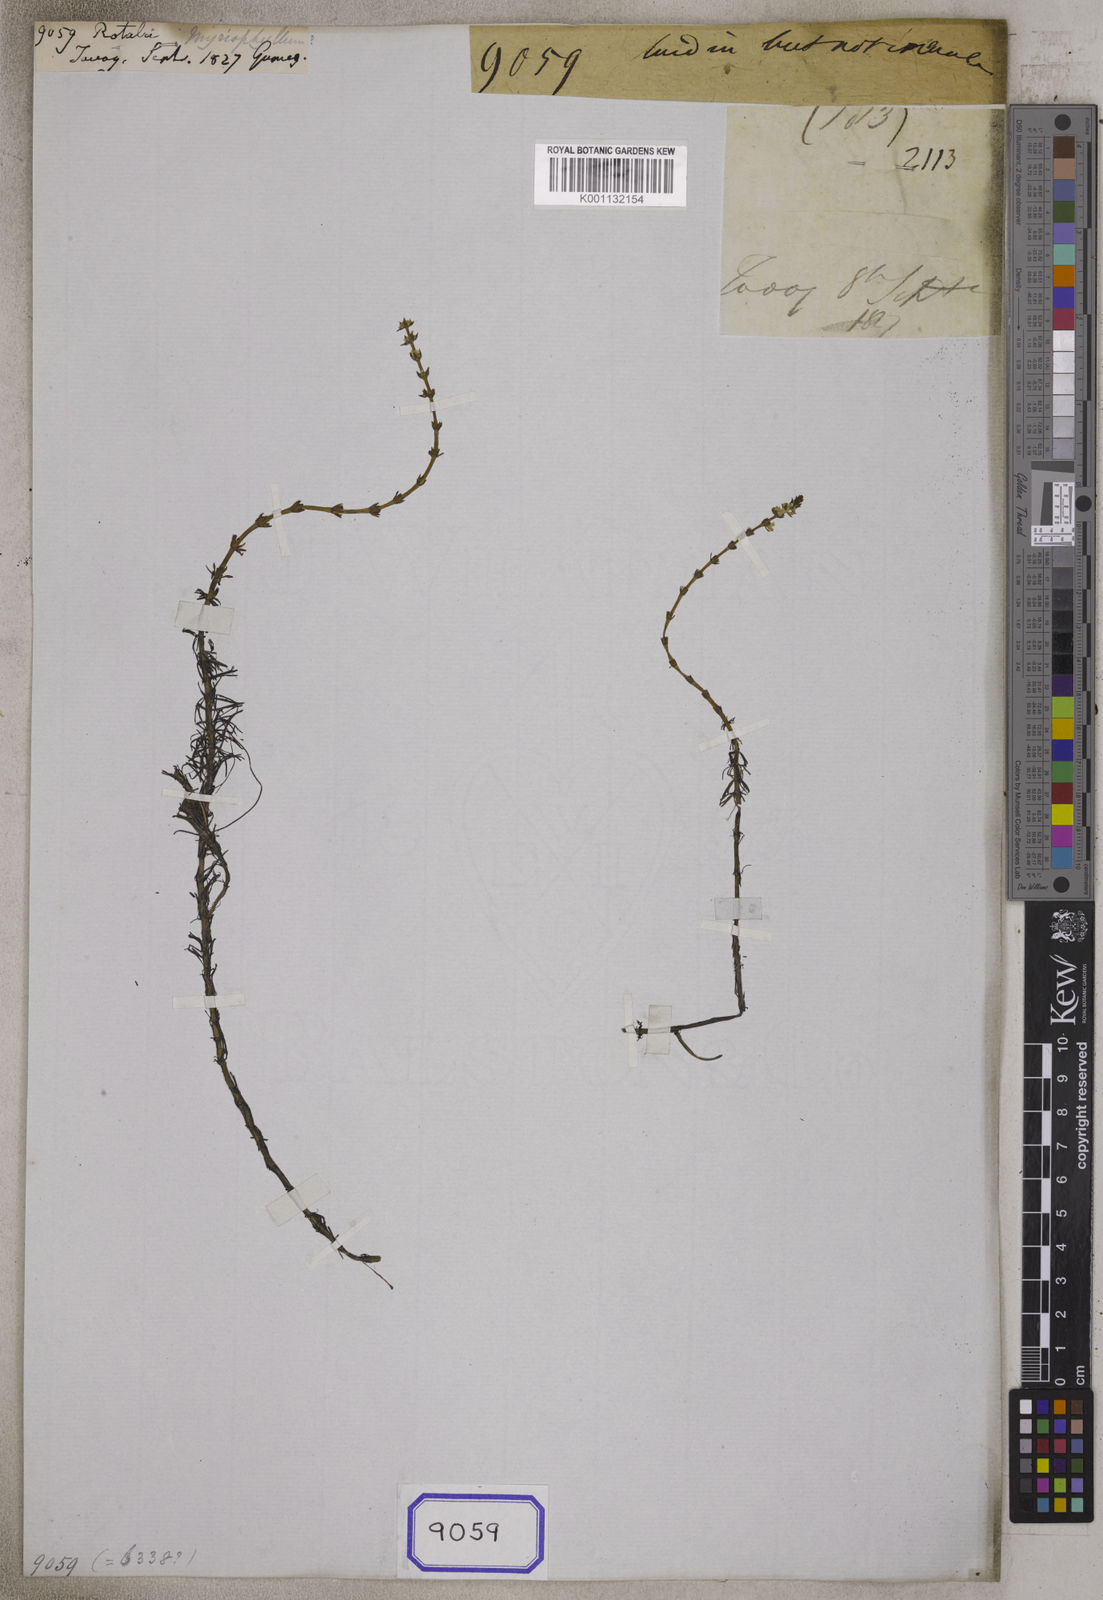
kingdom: Plantae
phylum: Tracheophyta
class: Magnoliopsida
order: Myrtales
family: Lythraceae
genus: Rotala
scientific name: Rotala
